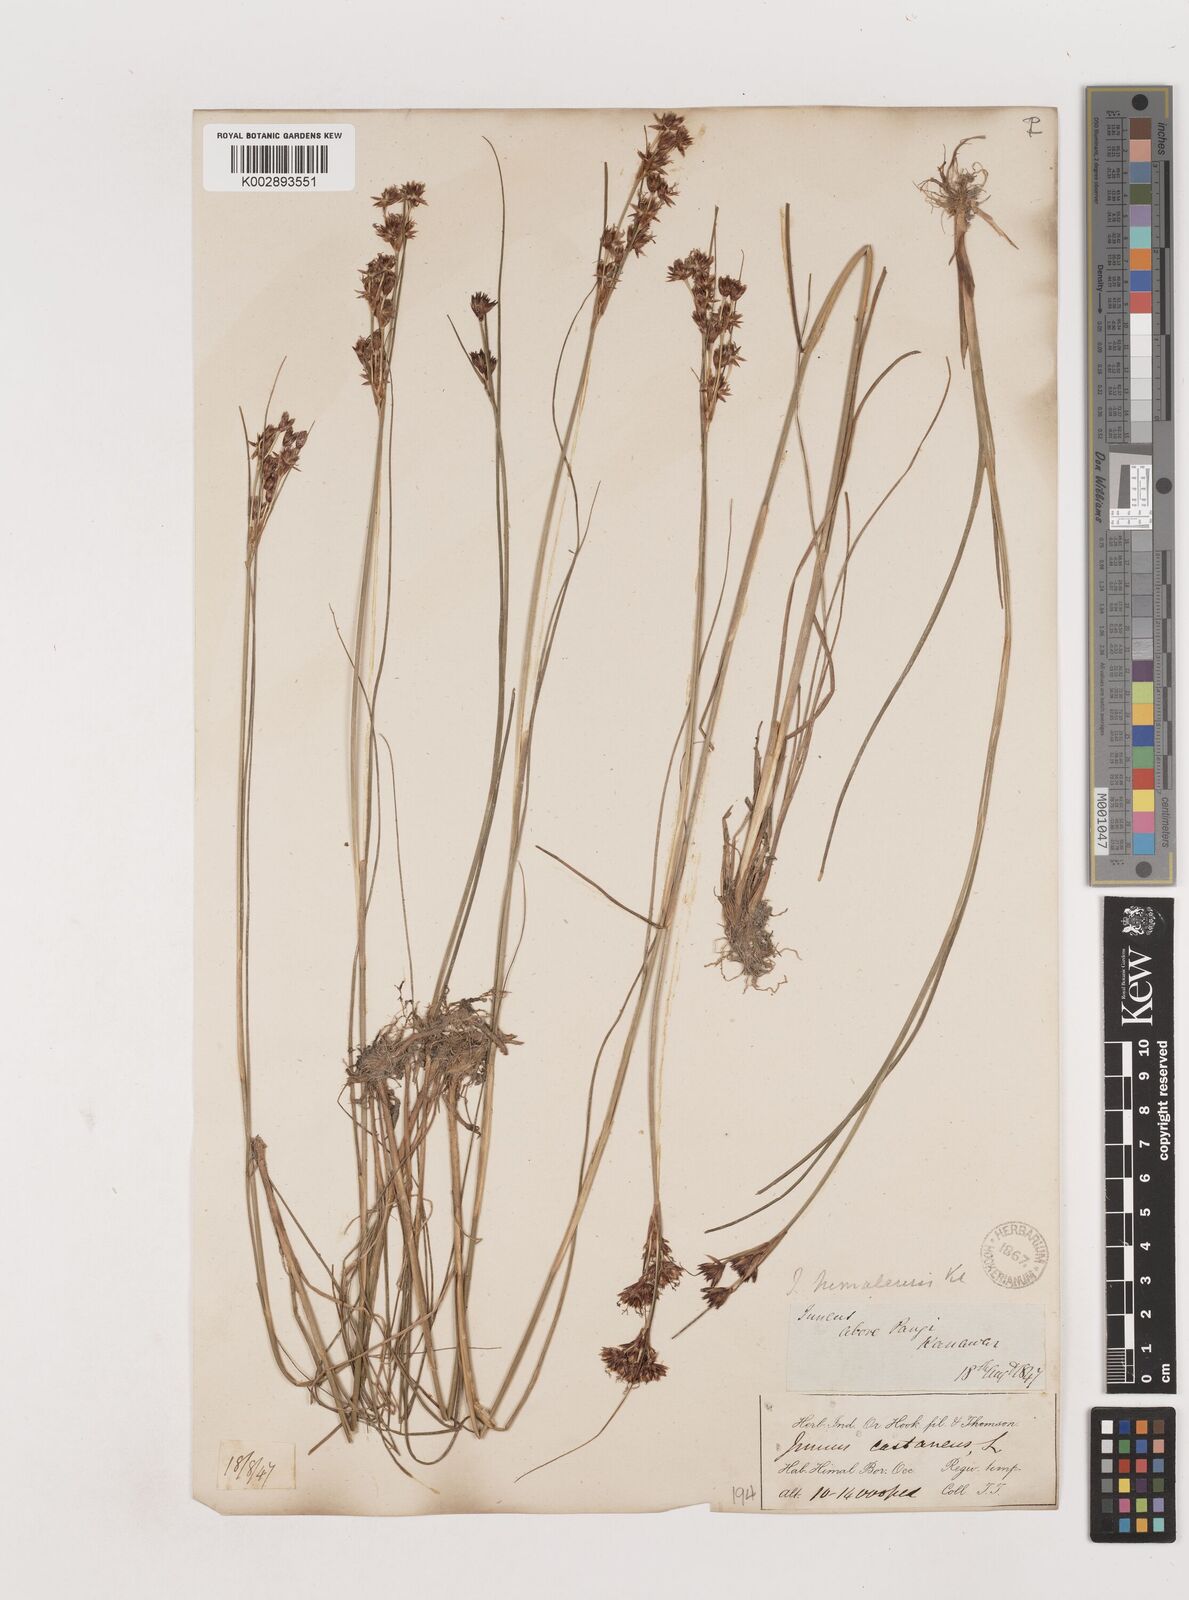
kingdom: Plantae
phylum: Tracheophyta
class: Liliopsida
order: Poales
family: Juncaceae
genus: Juncus
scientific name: Juncus himalensis
